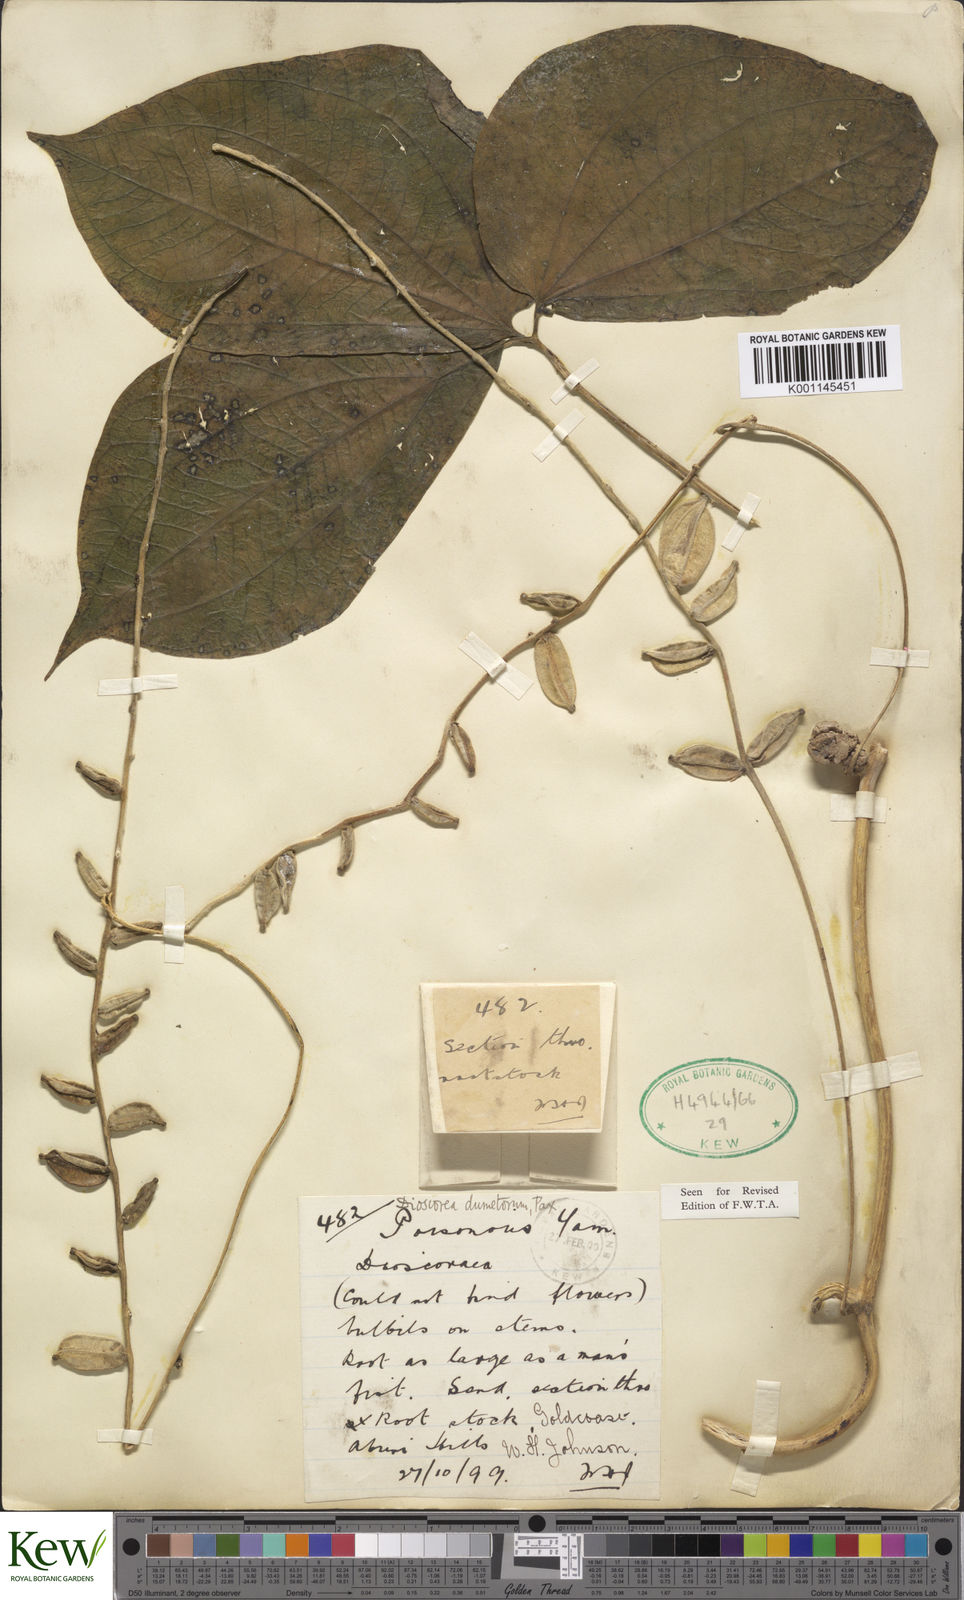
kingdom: Plantae
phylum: Tracheophyta
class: Liliopsida
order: Dioscoreales
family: Dioscoreaceae
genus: Dioscorea
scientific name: Dioscorea dumetorum
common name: African bitter yam
